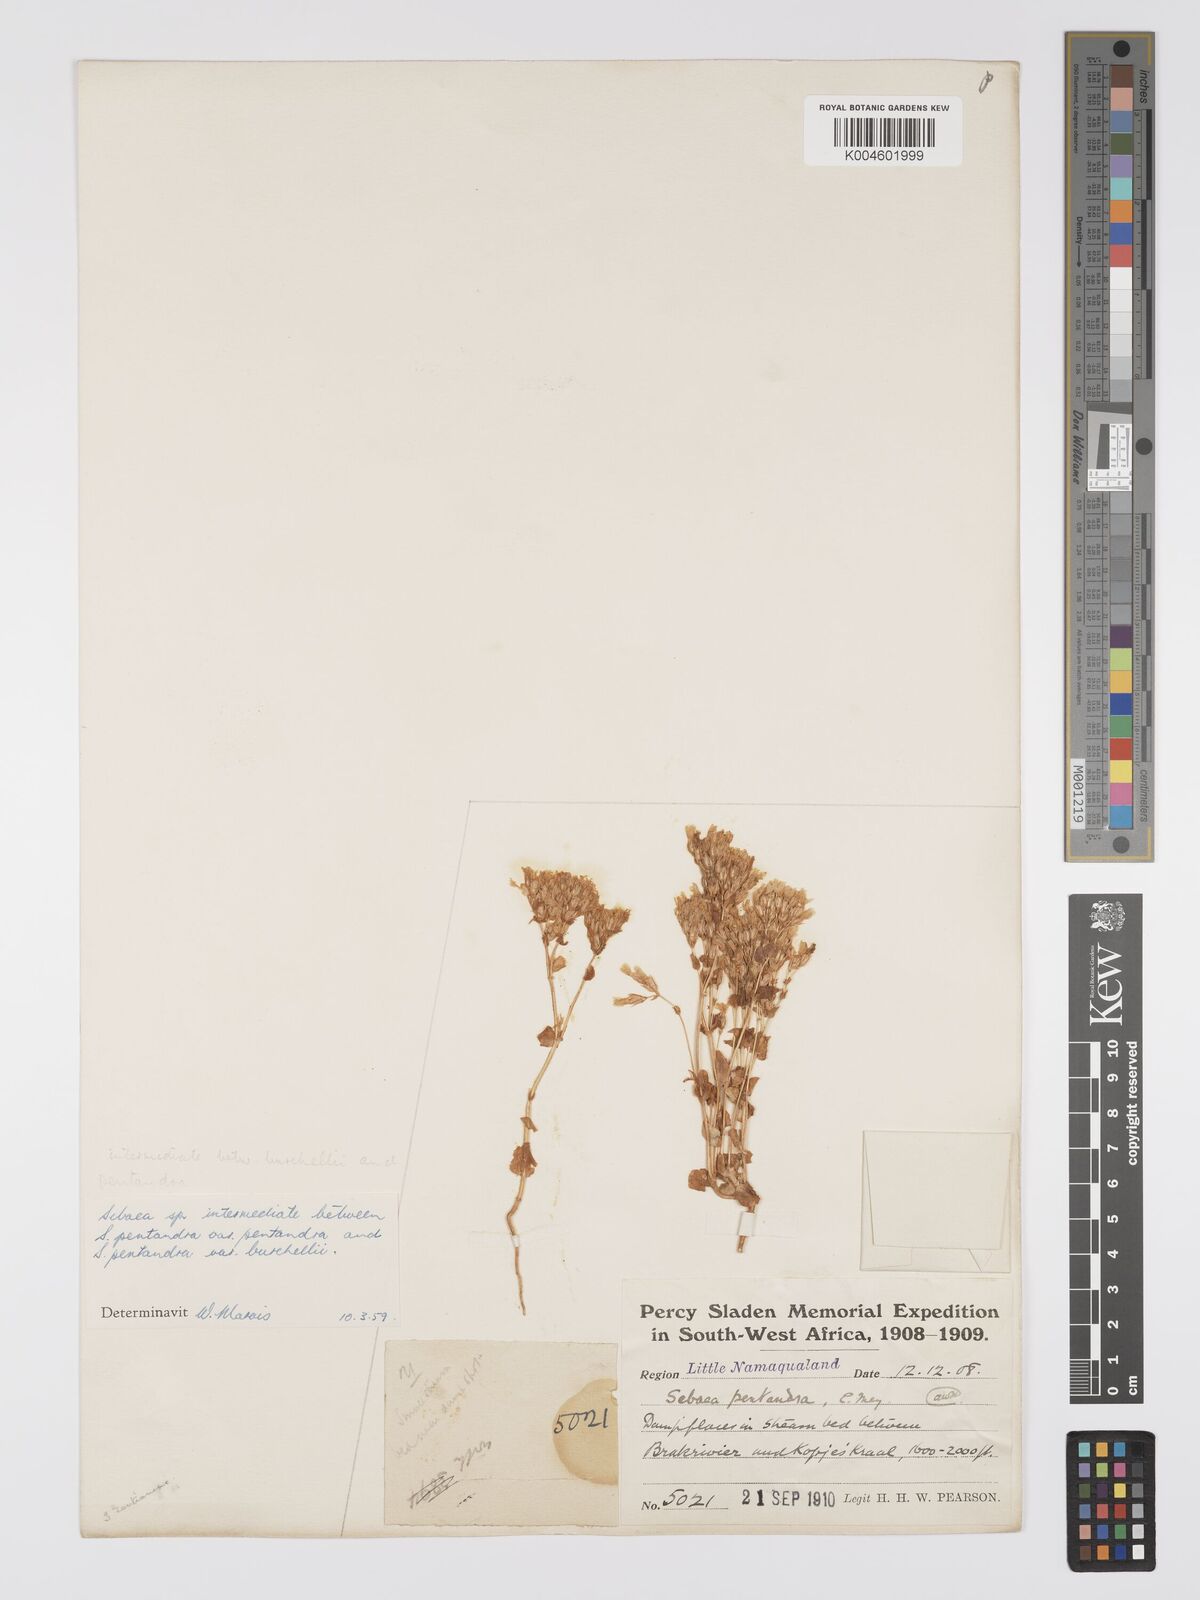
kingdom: Plantae
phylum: Tracheophyta
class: Magnoliopsida
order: Gentianales
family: Gentianaceae
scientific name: Gentianaceae
